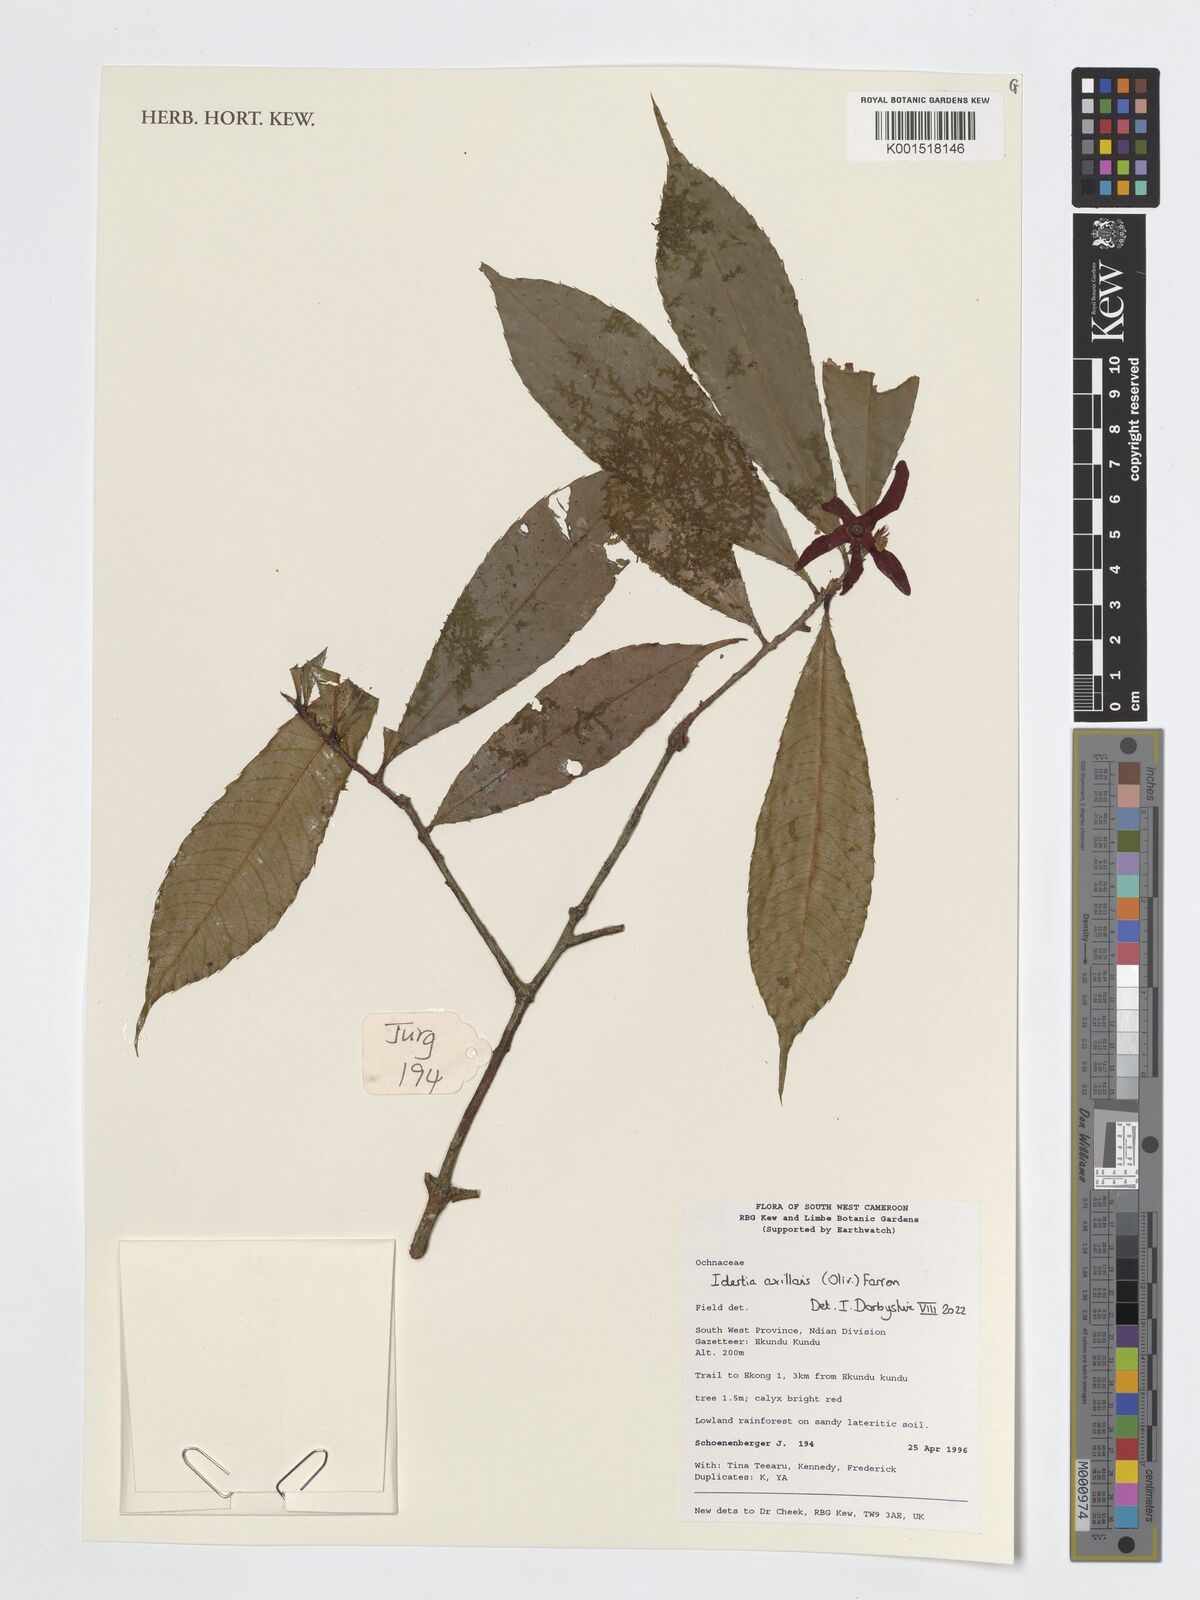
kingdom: Plantae
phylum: Tracheophyta
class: Magnoliopsida
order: Malpighiales
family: Ochnaceae
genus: Idertia
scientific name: Idertia axillaris
